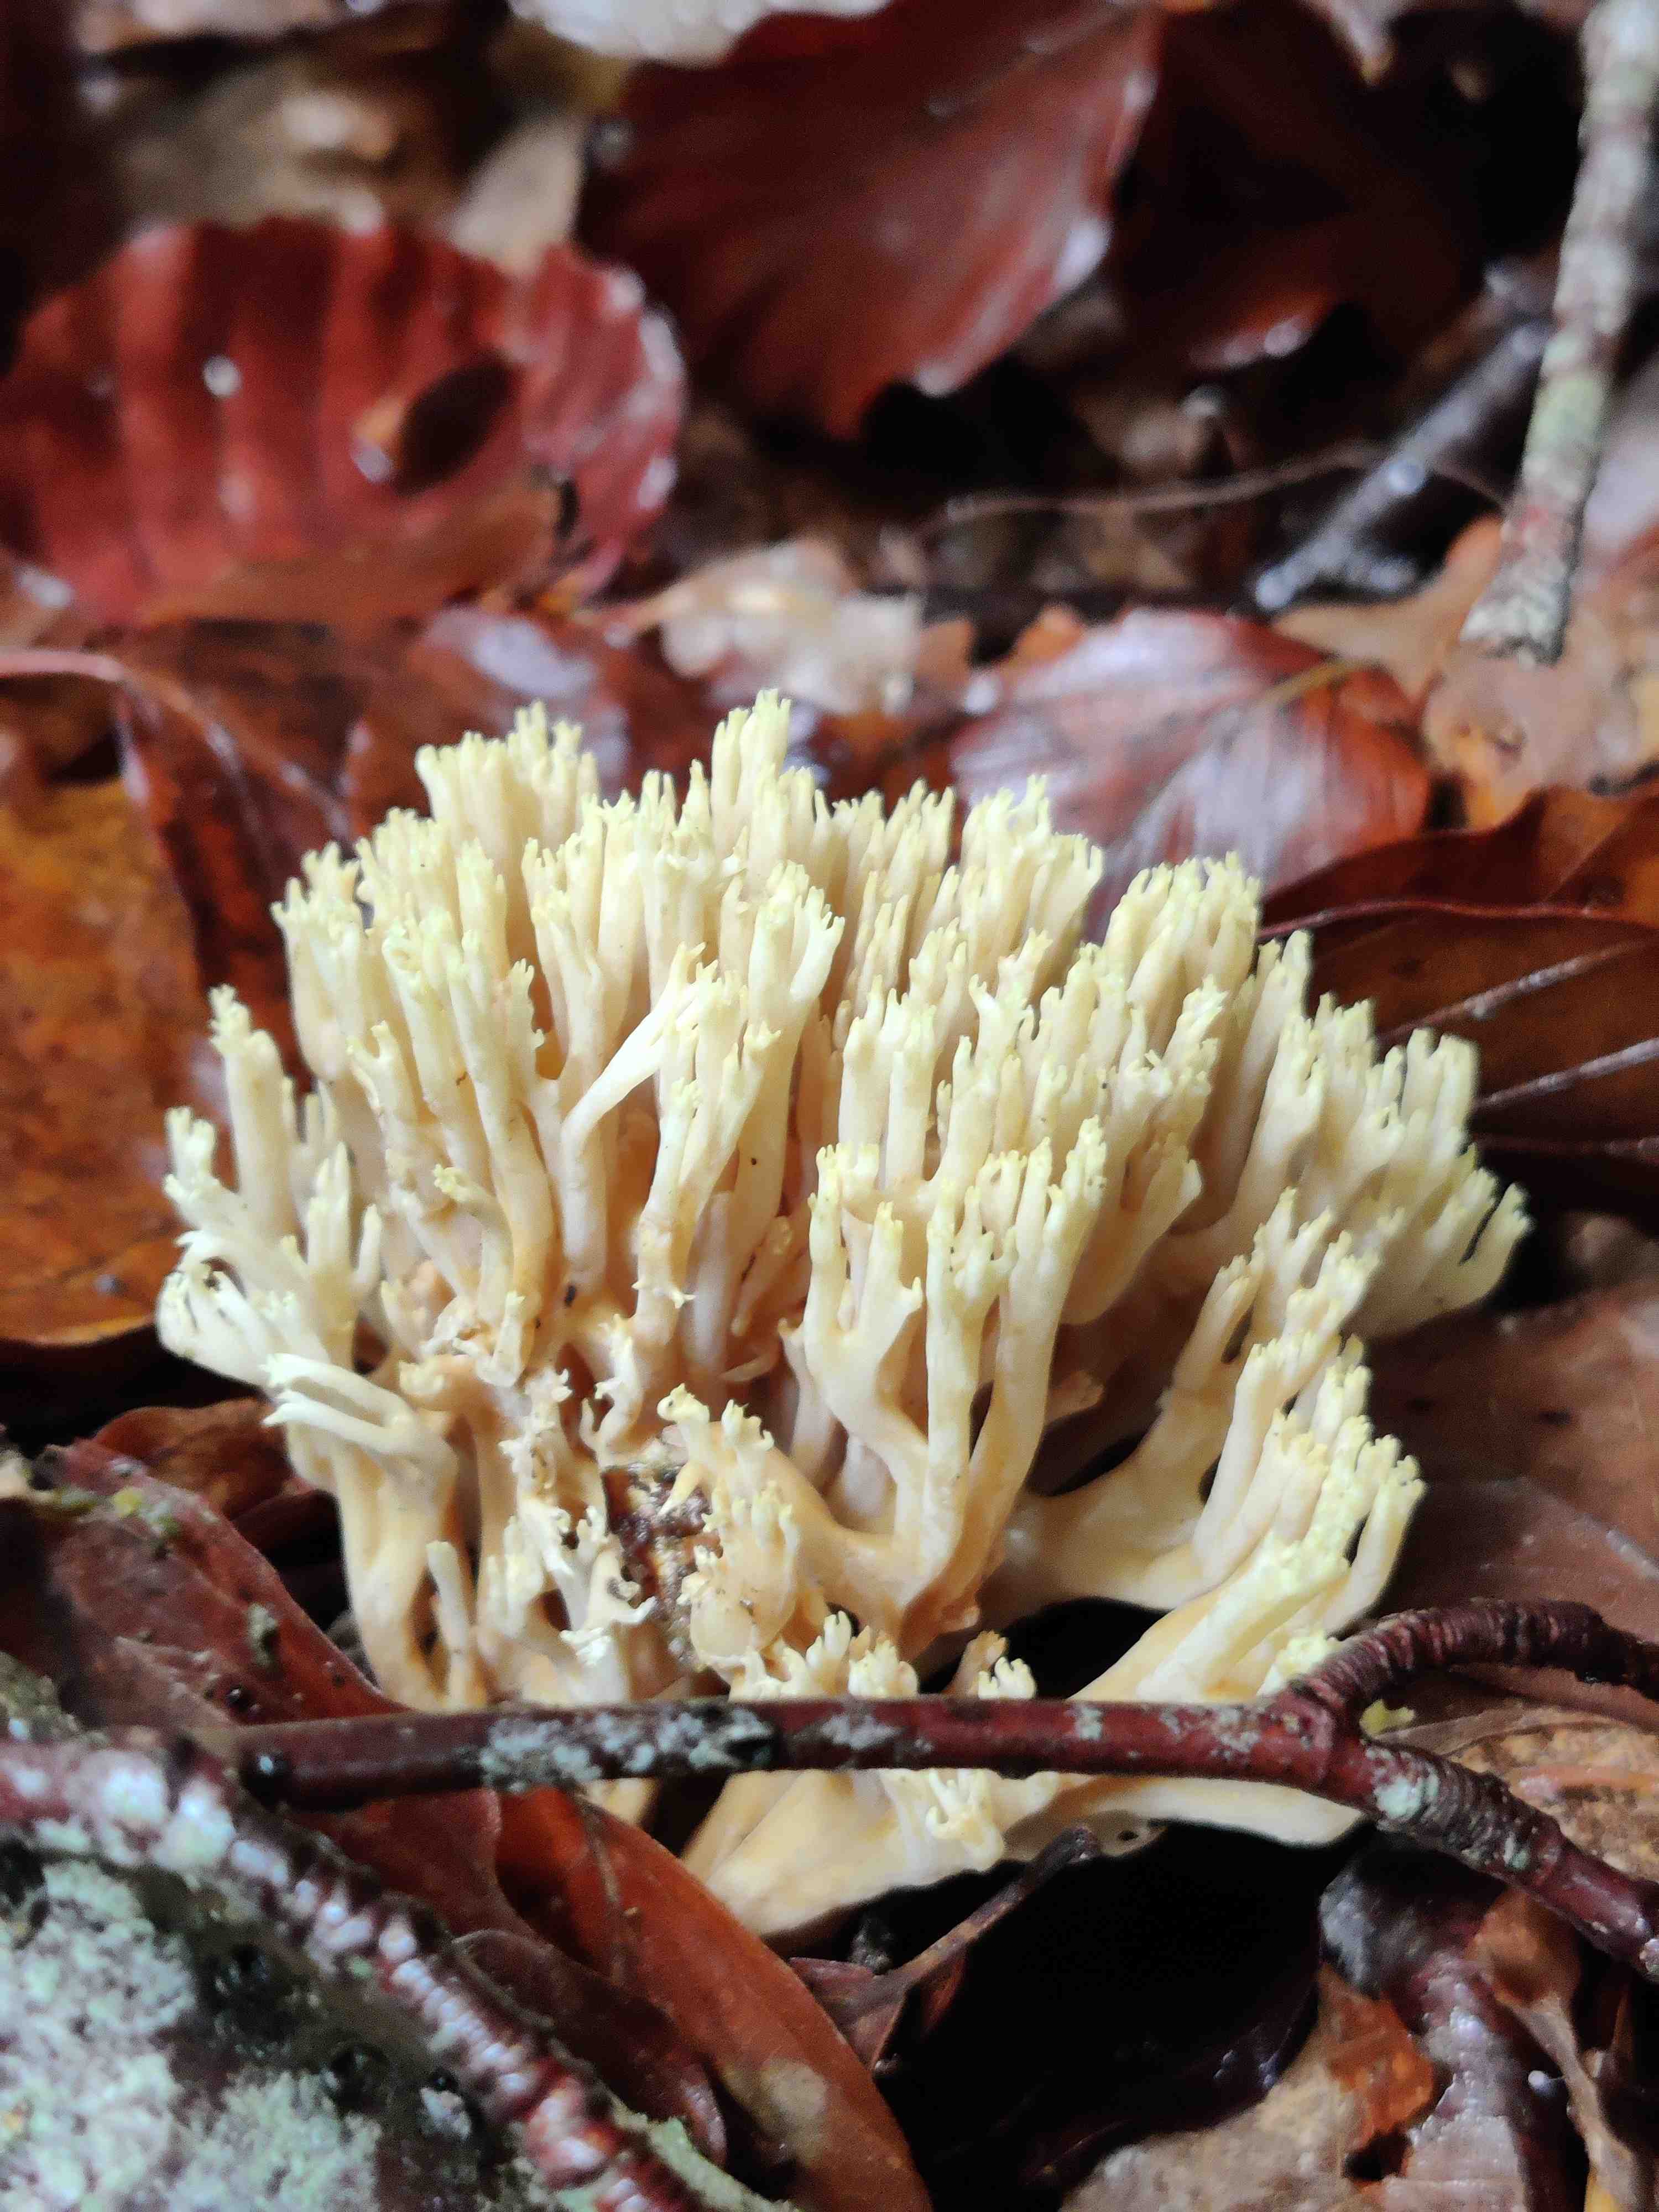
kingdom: Fungi
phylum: Basidiomycota
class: Agaricomycetes
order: Gomphales
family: Gomphaceae
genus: Ramaria
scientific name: Ramaria stricta
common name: rank koralsvamp
